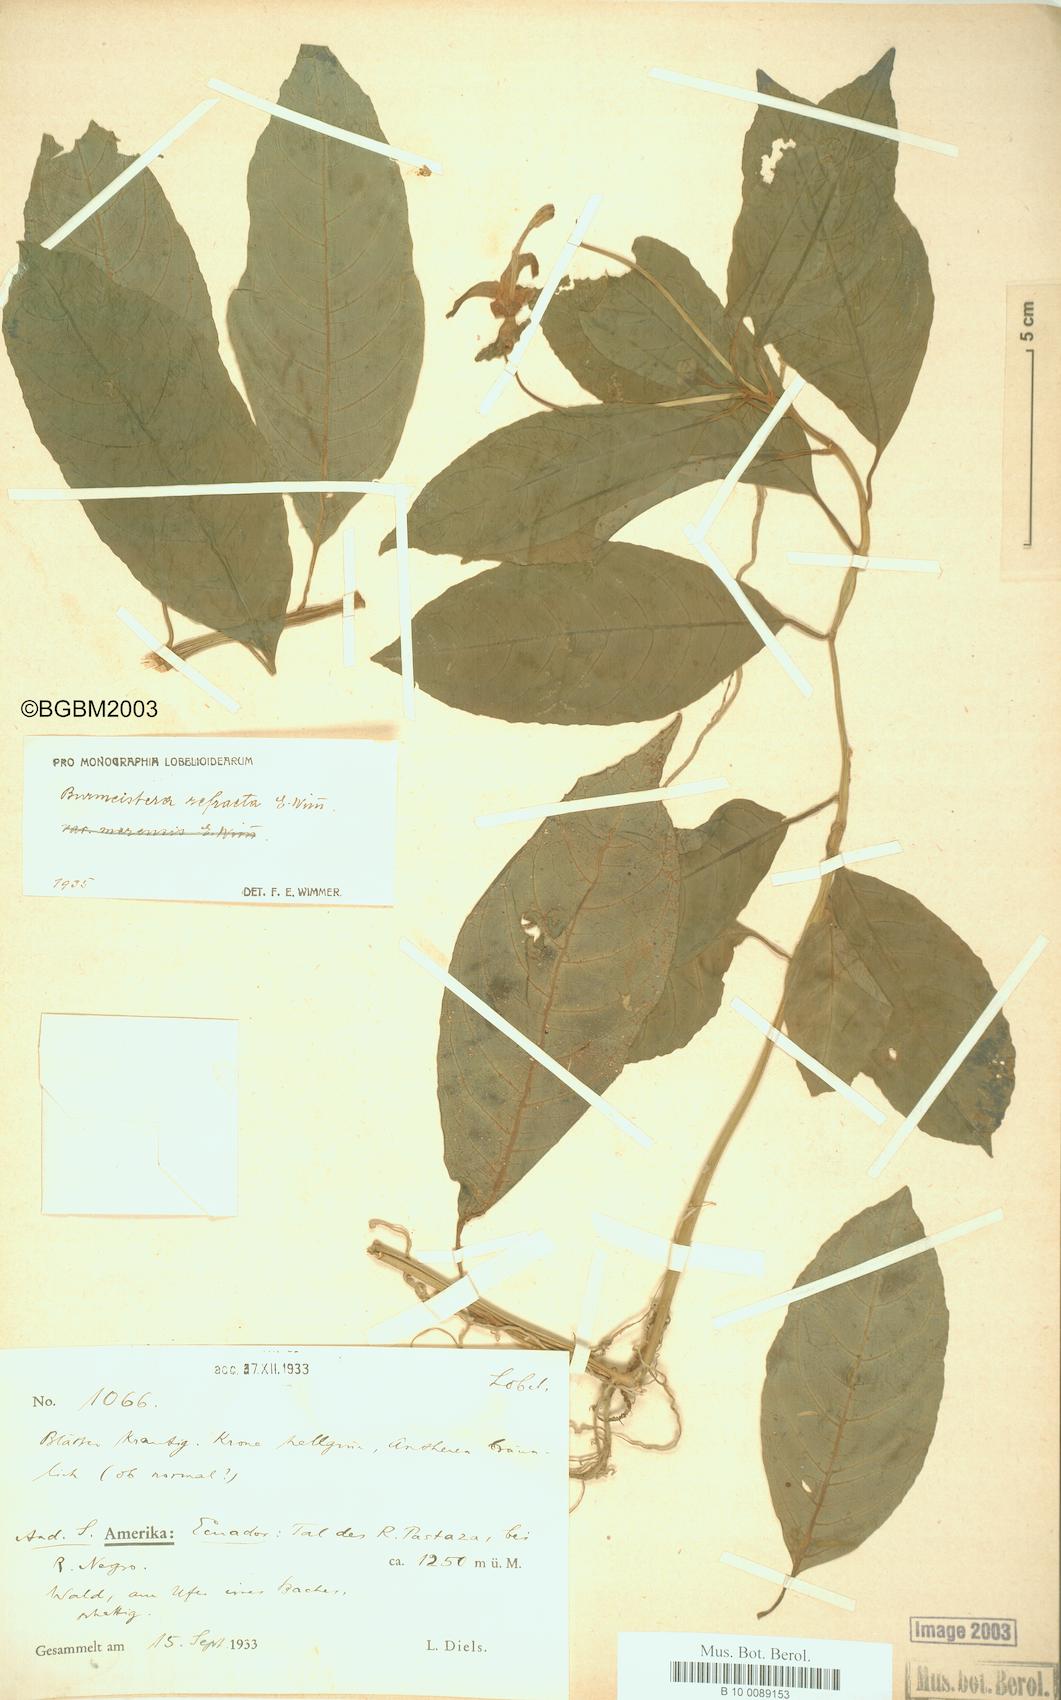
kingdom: Plantae
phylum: Tracheophyta
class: Magnoliopsida
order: Asterales
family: Campanulaceae
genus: Burmeistera
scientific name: Burmeistera refracta
